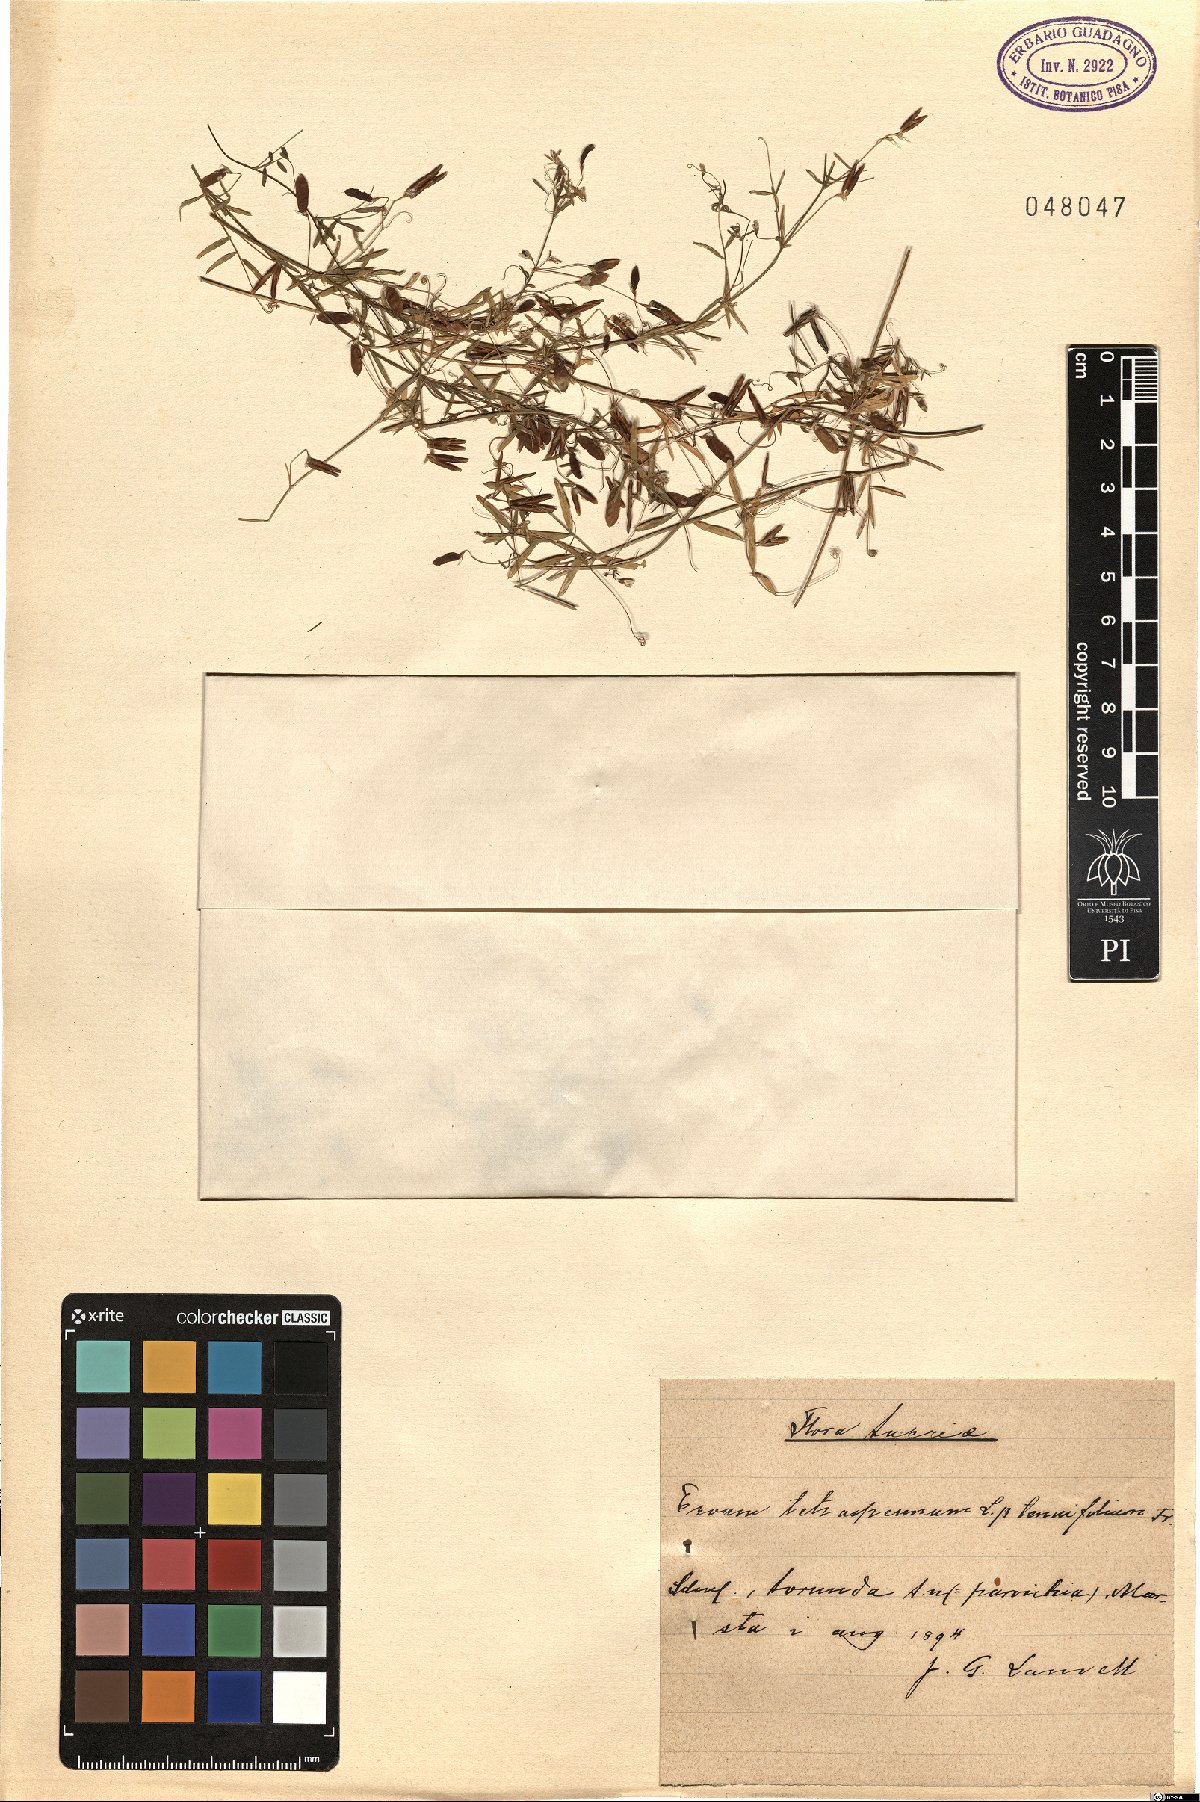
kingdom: Plantae
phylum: Tracheophyta
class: Magnoliopsida
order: Fabales
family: Fabaceae
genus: Vicia
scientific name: Vicia tetrasperma
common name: Smooth tare
